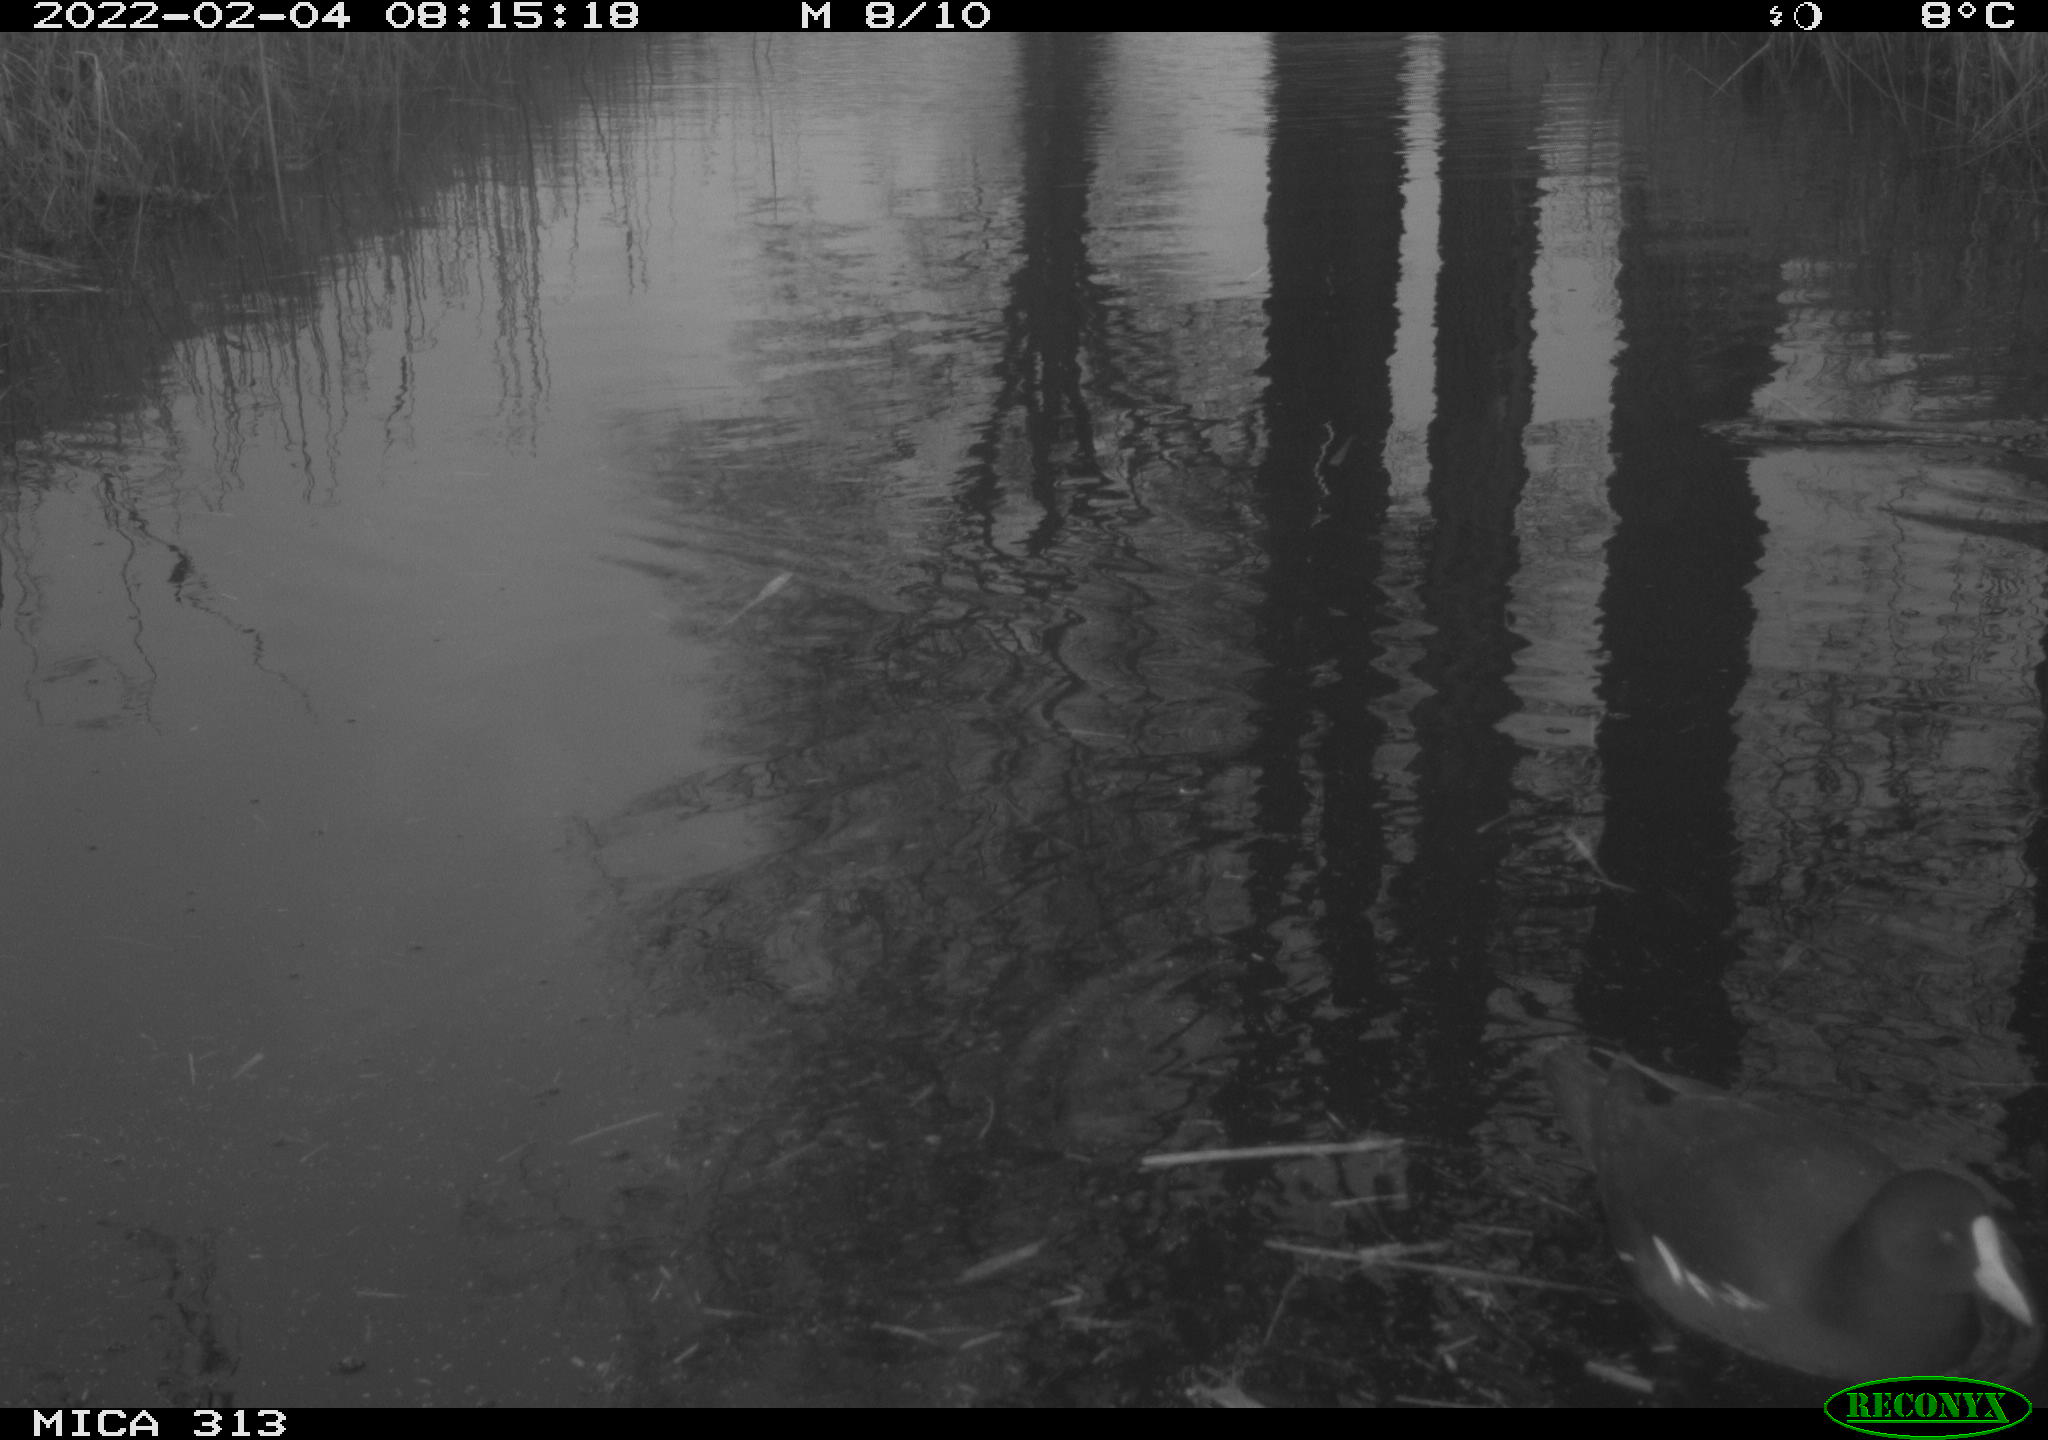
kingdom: Animalia
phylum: Chordata
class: Aves
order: Gruiformes
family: Rallidae
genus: Gallinula
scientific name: Gallinula chloropus
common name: Common moorhen
